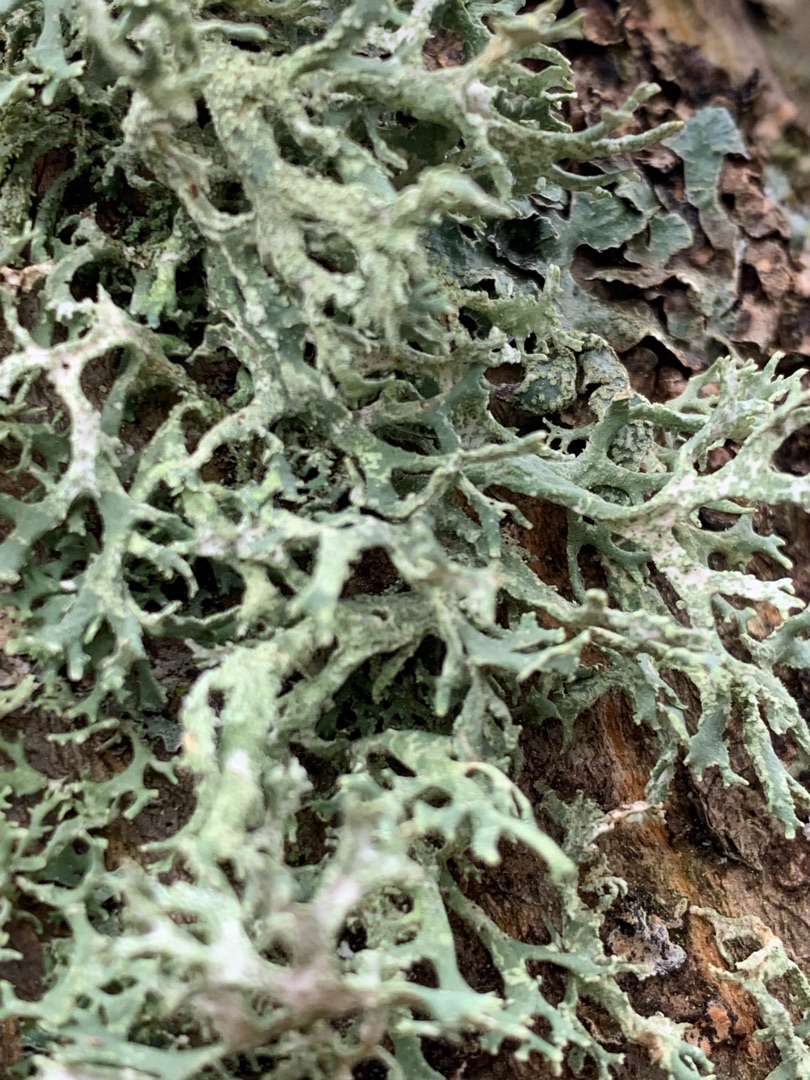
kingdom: Fungi
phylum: Ascomycota
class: Lecanoromycetes
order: Lecanorales
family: Parmeliaceae
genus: Evernia
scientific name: Evernia prunastri
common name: Almindelig slåenlav
